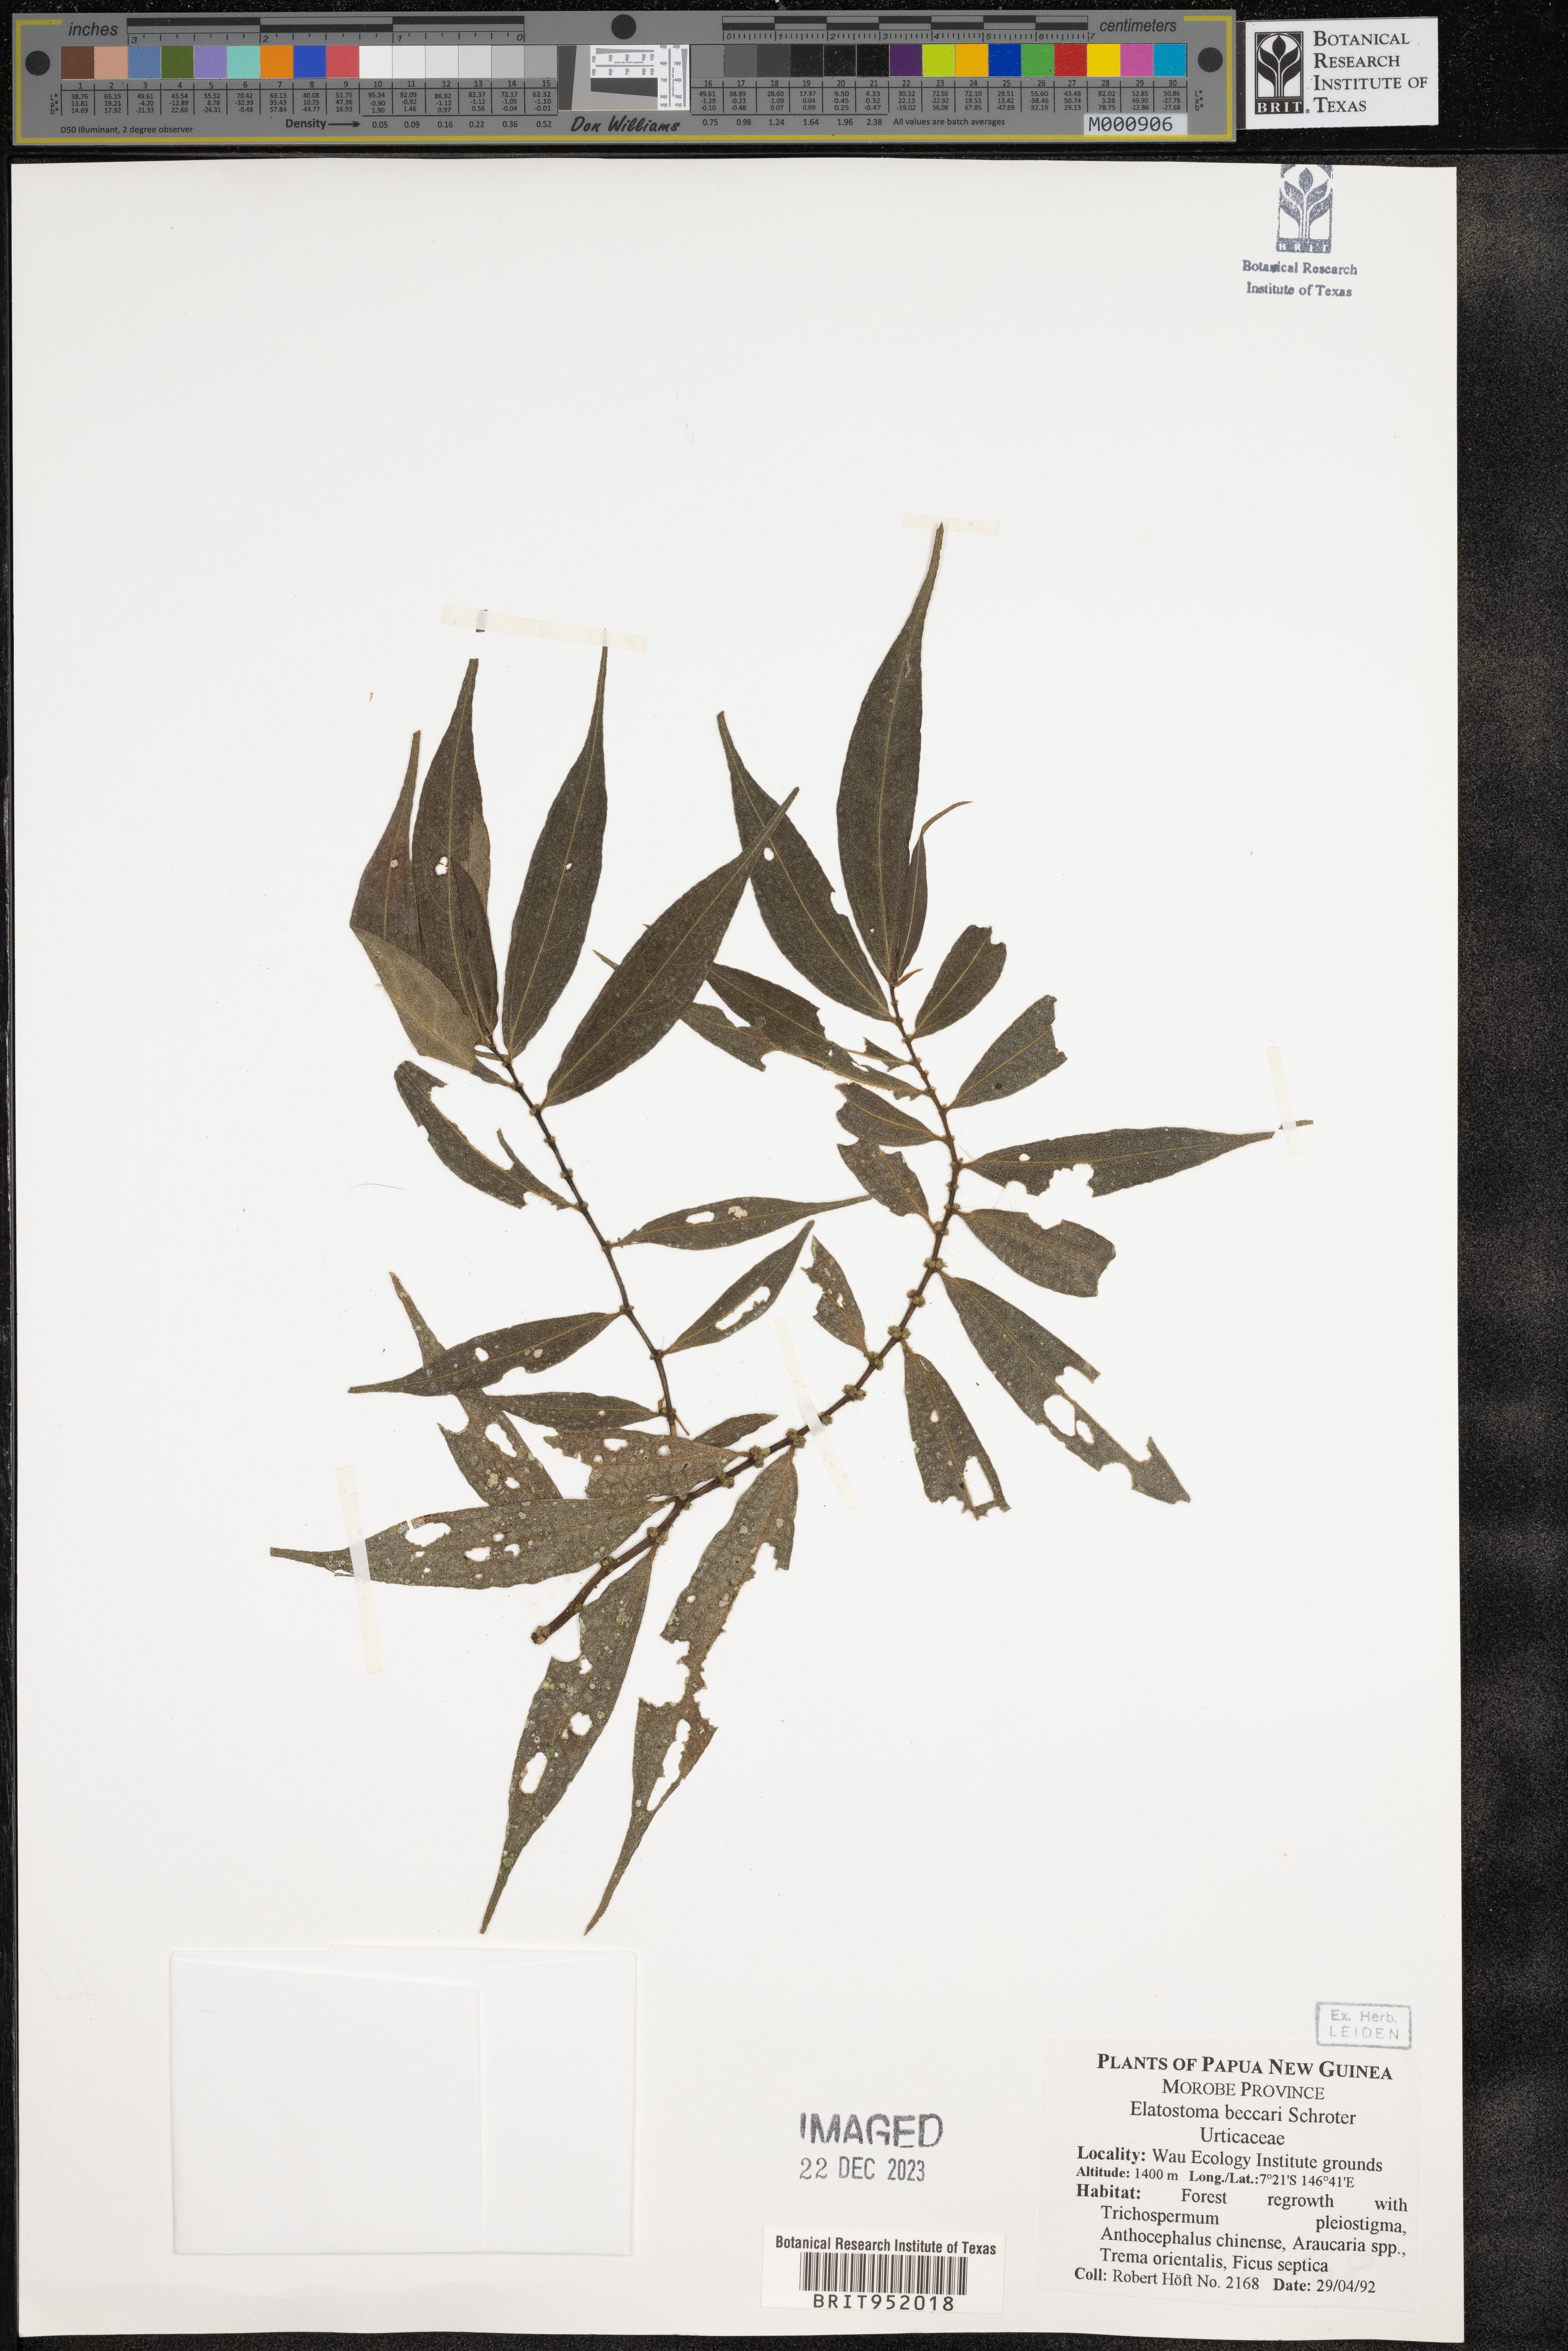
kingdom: Plantae
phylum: Tracheophyta
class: Magnoliopsida
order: Rosales
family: Urticaceae
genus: Elatostema
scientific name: Elatostema
